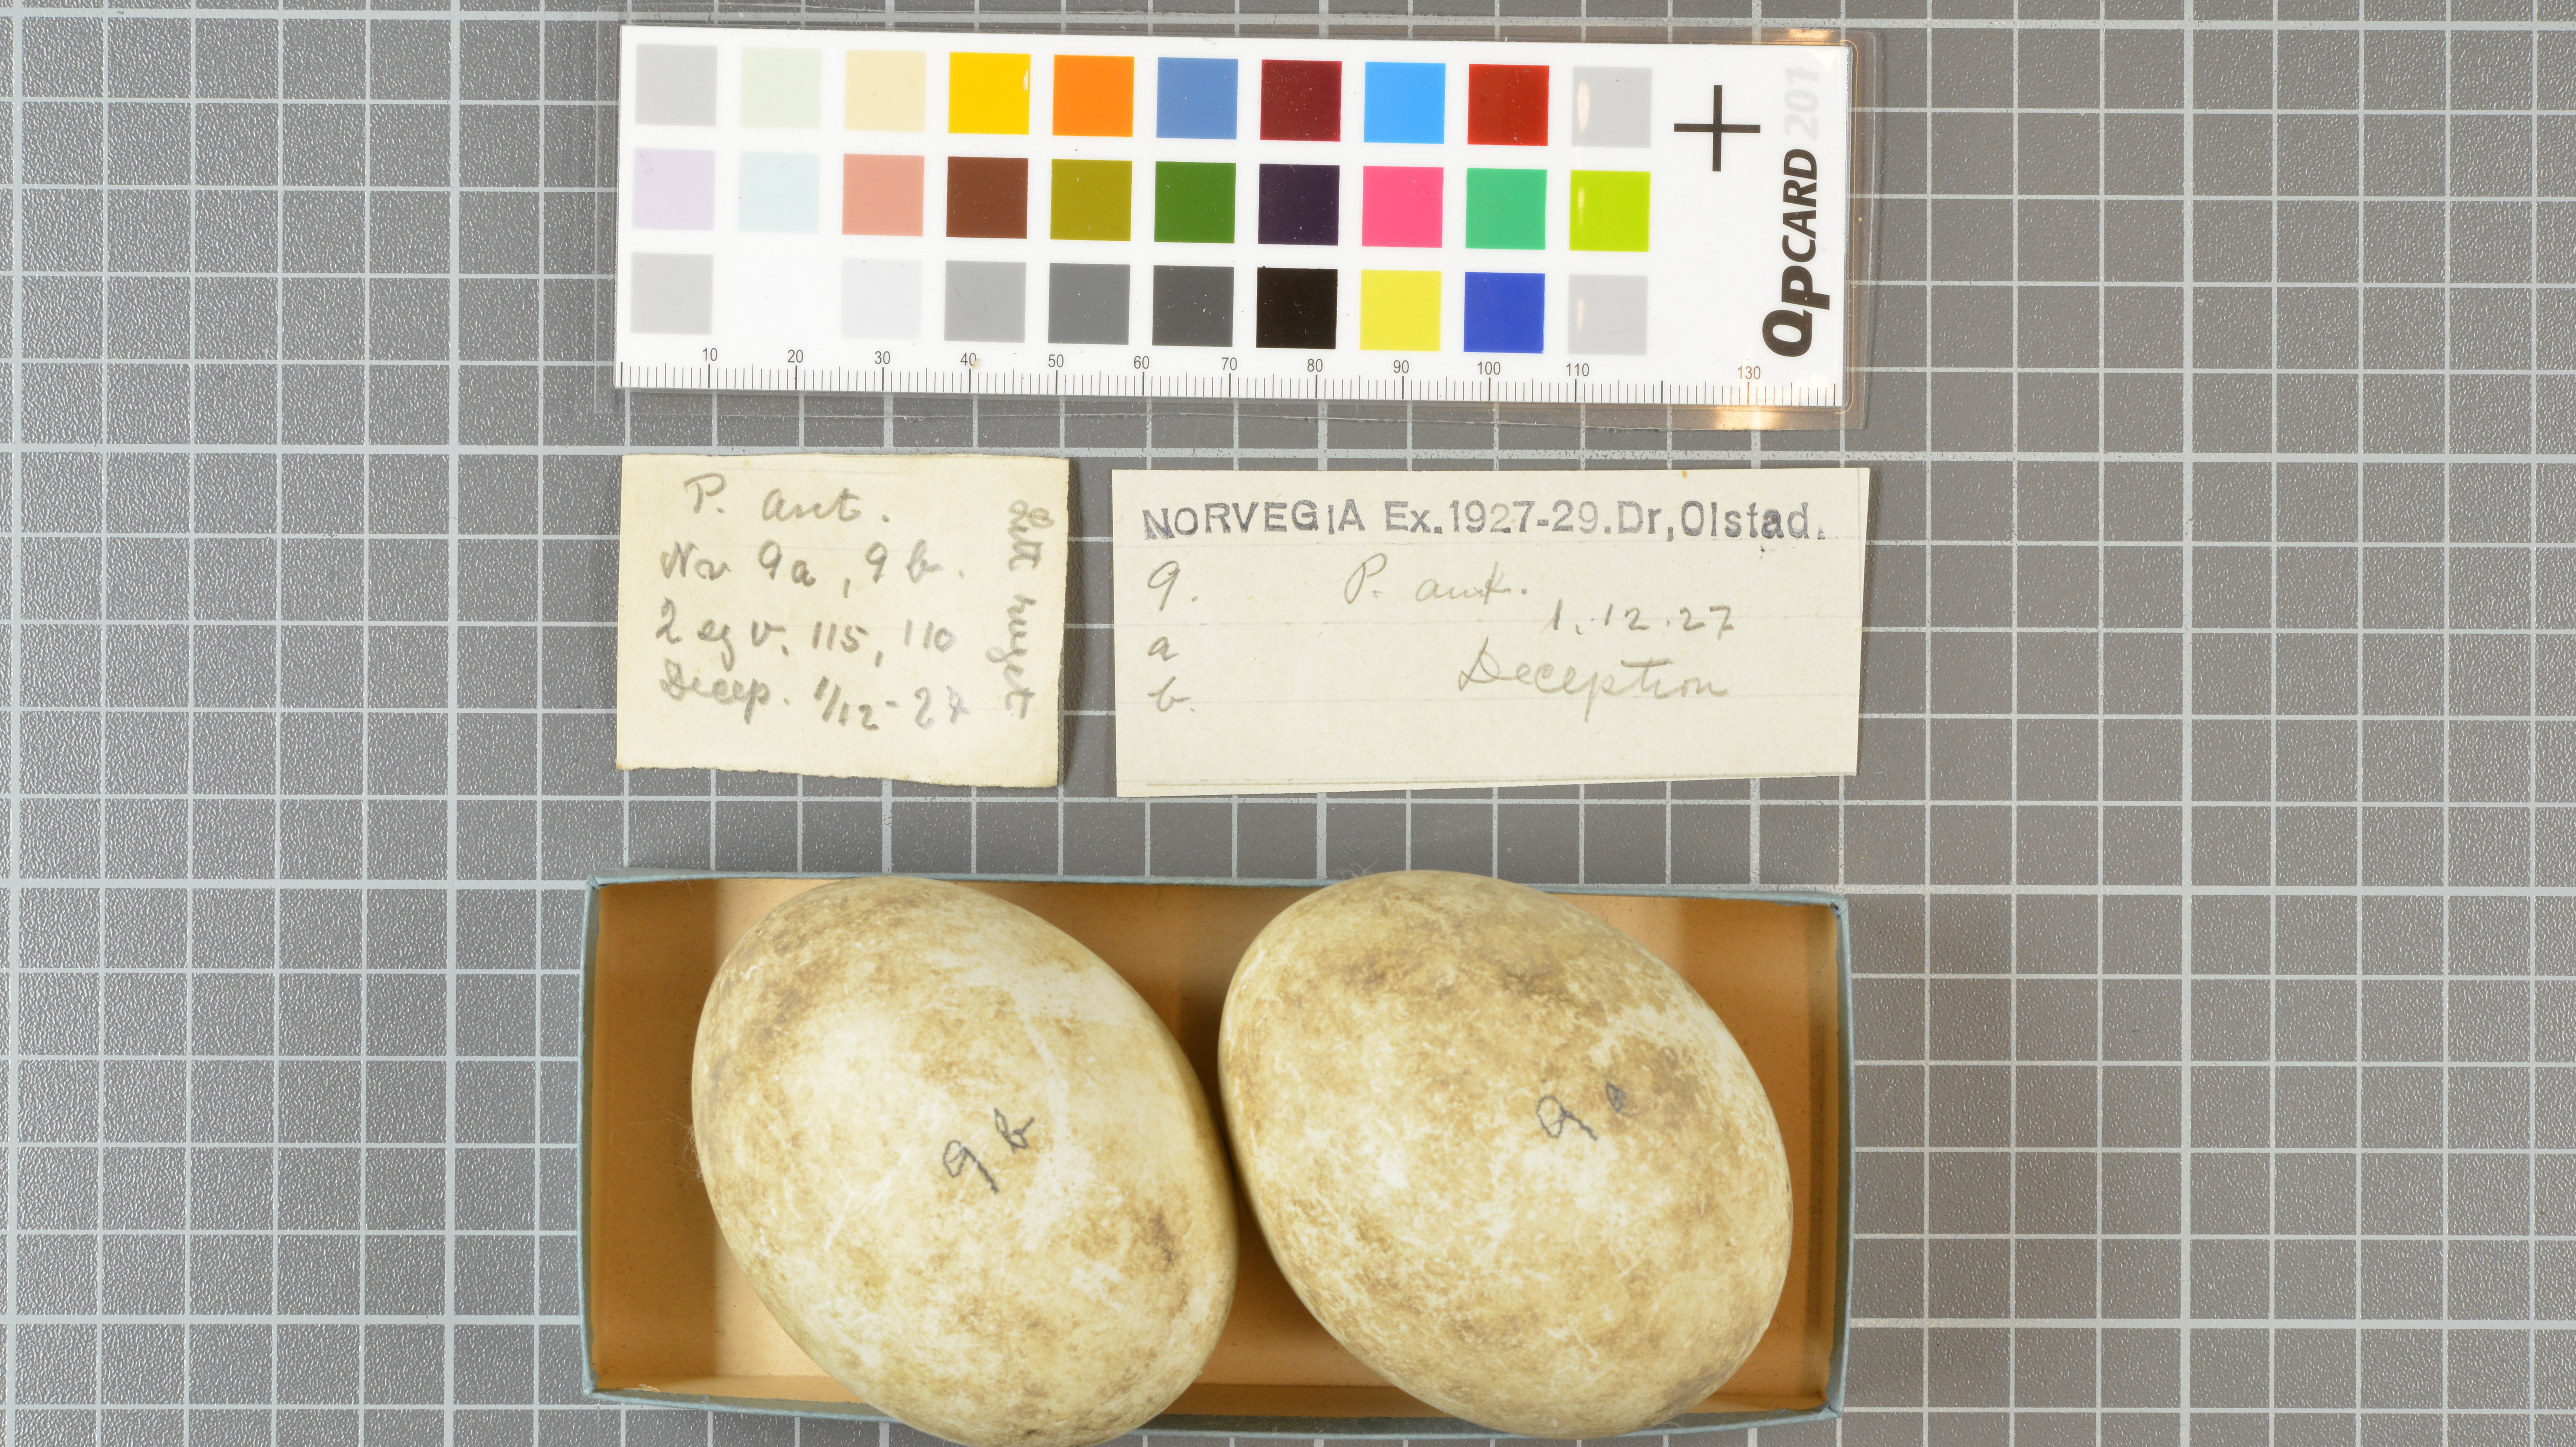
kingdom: Animalia
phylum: Chordata
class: Aves
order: Sphenisciformes
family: Spheniscidae
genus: Pygoscelis
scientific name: Pygoscelis antarcticus
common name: Chinstrap penguin
